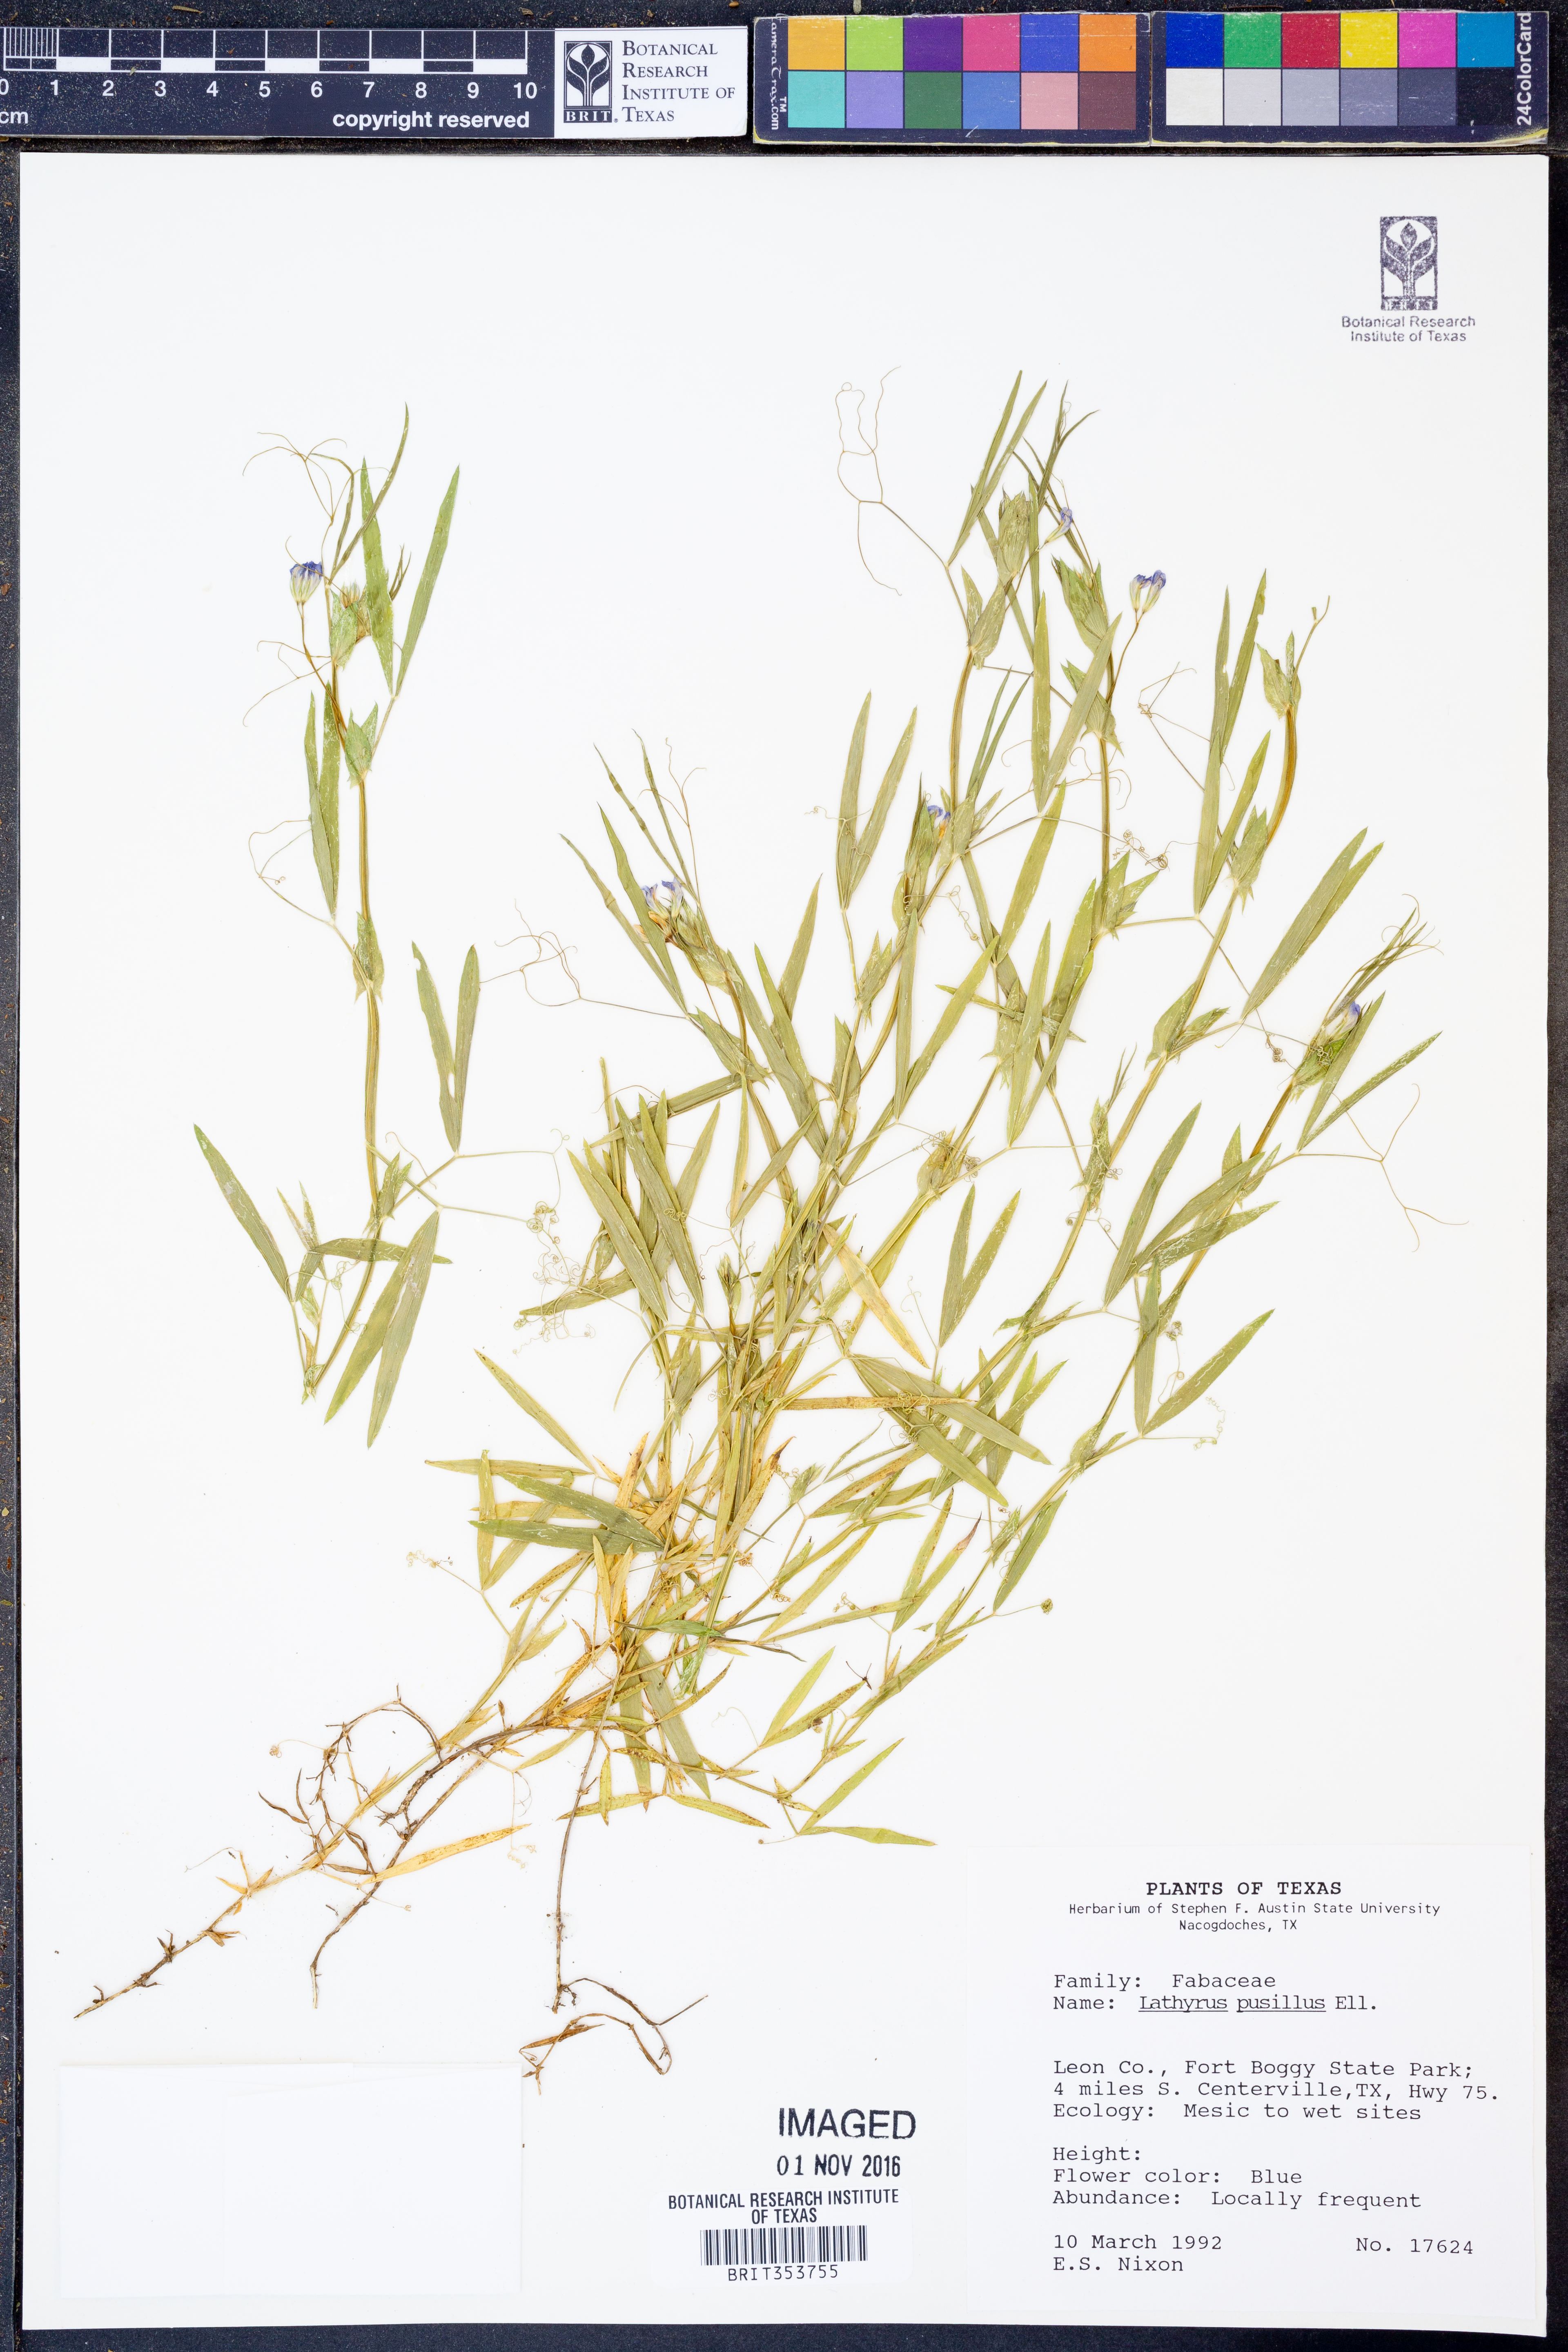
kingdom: Plantae
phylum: Tracheophyta
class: Magnoliopsida
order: Fabales
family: Fabaceae
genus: Lathyrus
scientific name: Lathyrus pusillus
